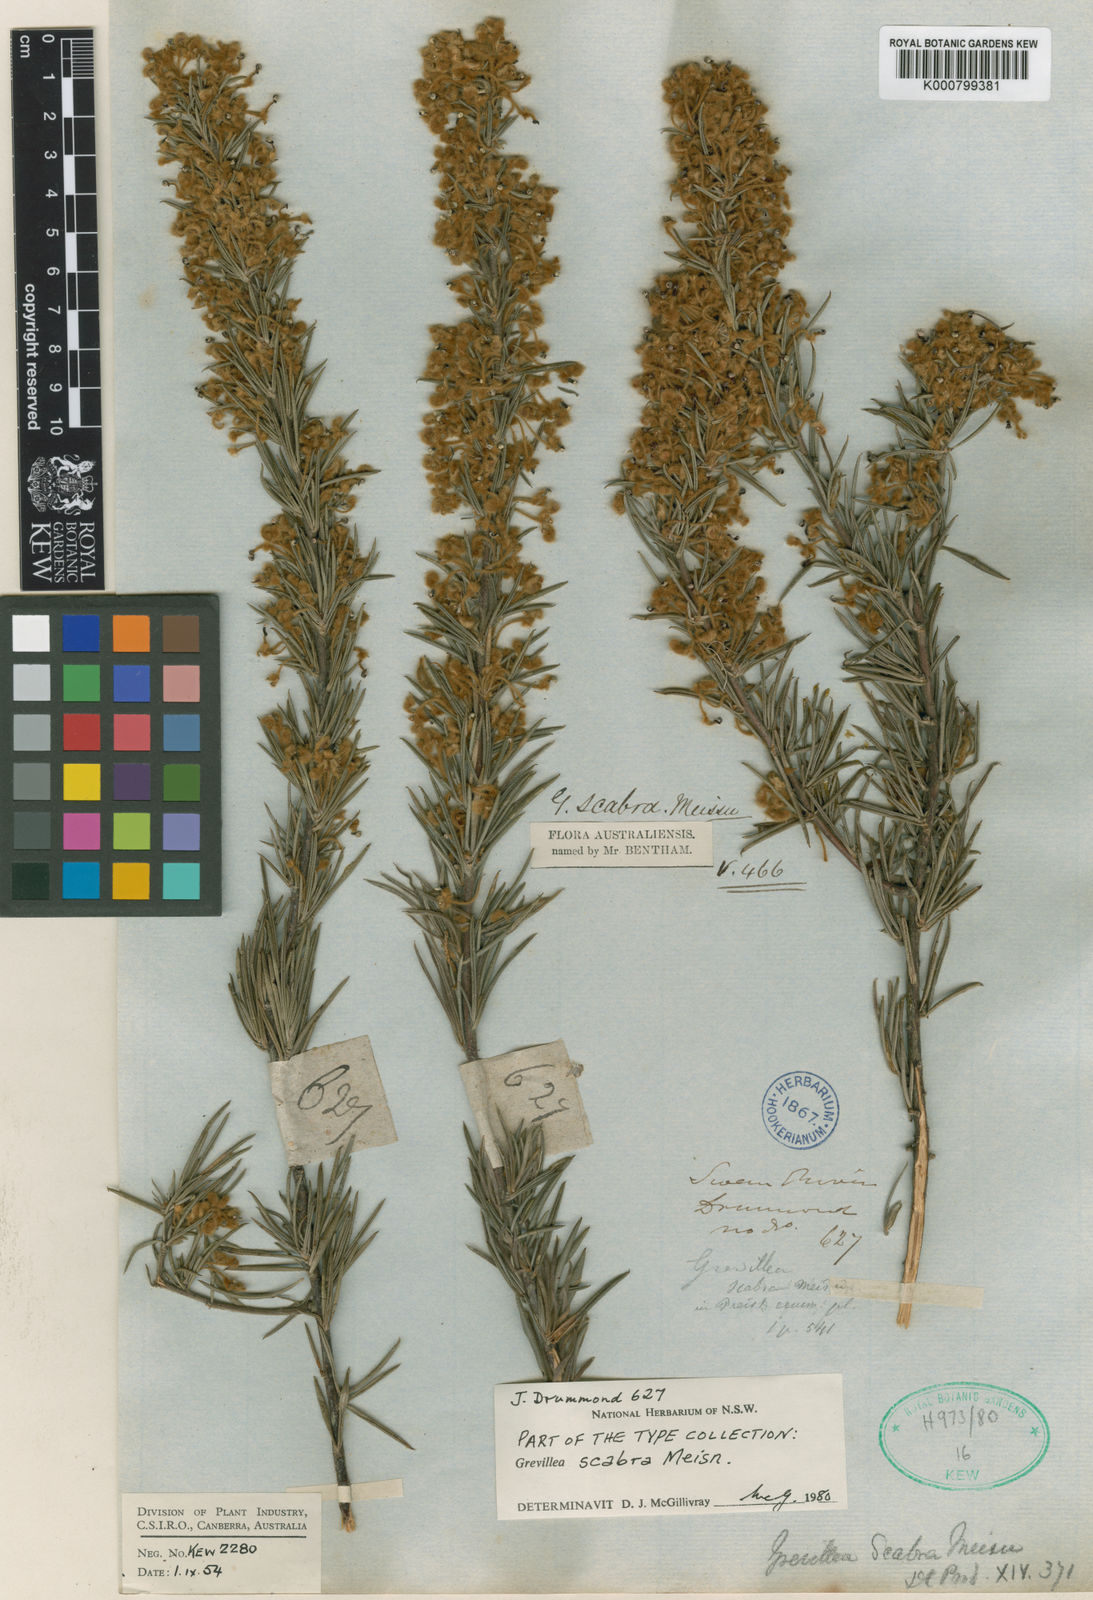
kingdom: Plantae
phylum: Tracheophyta
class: Magnoliopsida
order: Proteales
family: Proteaceae
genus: Grevillea
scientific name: Grevillea scabra
